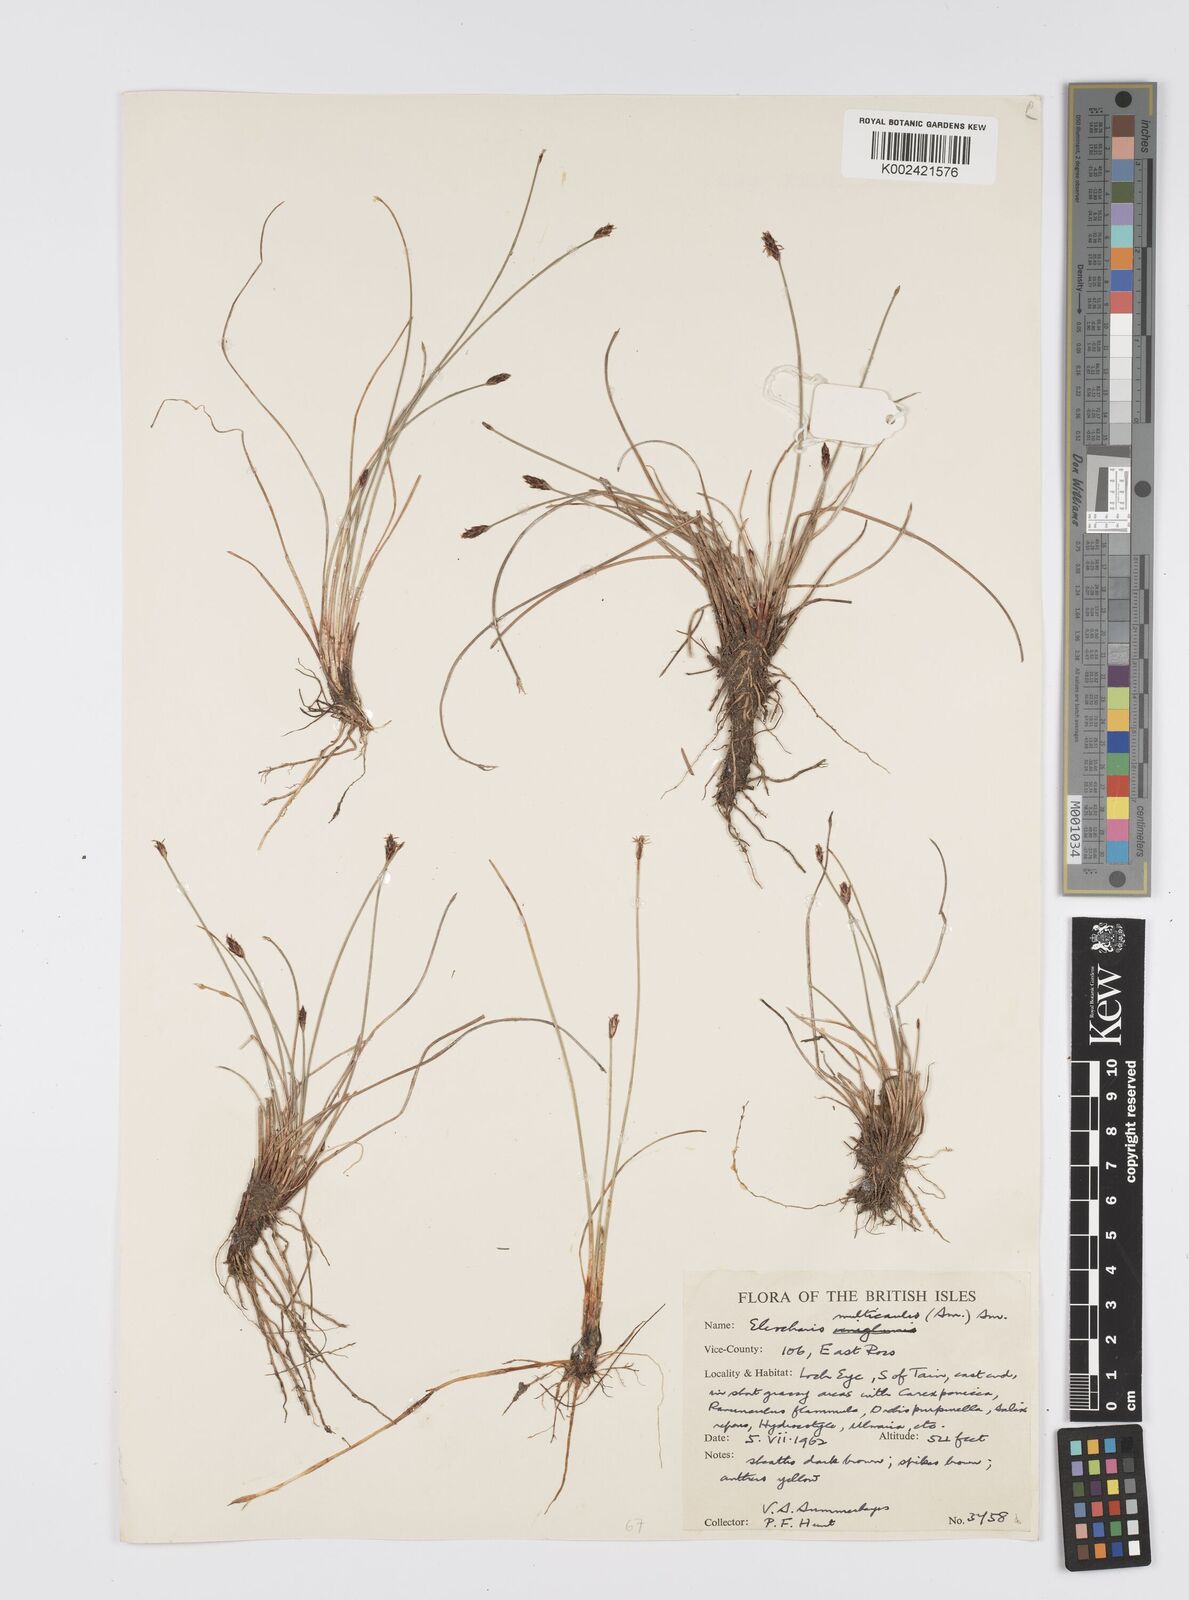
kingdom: Plantae
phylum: Tracheophyta
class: Liliopsida
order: Poales
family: Cyperaceae
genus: Eleocharis
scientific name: Eleocharis multicaulis
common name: Many-stalked spike-rush
